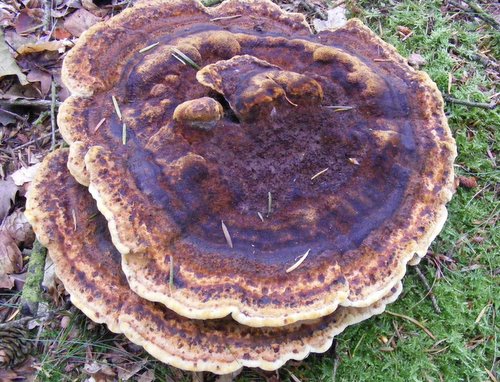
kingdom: Fungi
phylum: Basidiomycota
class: Agaricomycetes
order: Polyporales
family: Laetiporaceae
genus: Phaeolus
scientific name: Phaeolus schweinitzii
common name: brunporesvamp
